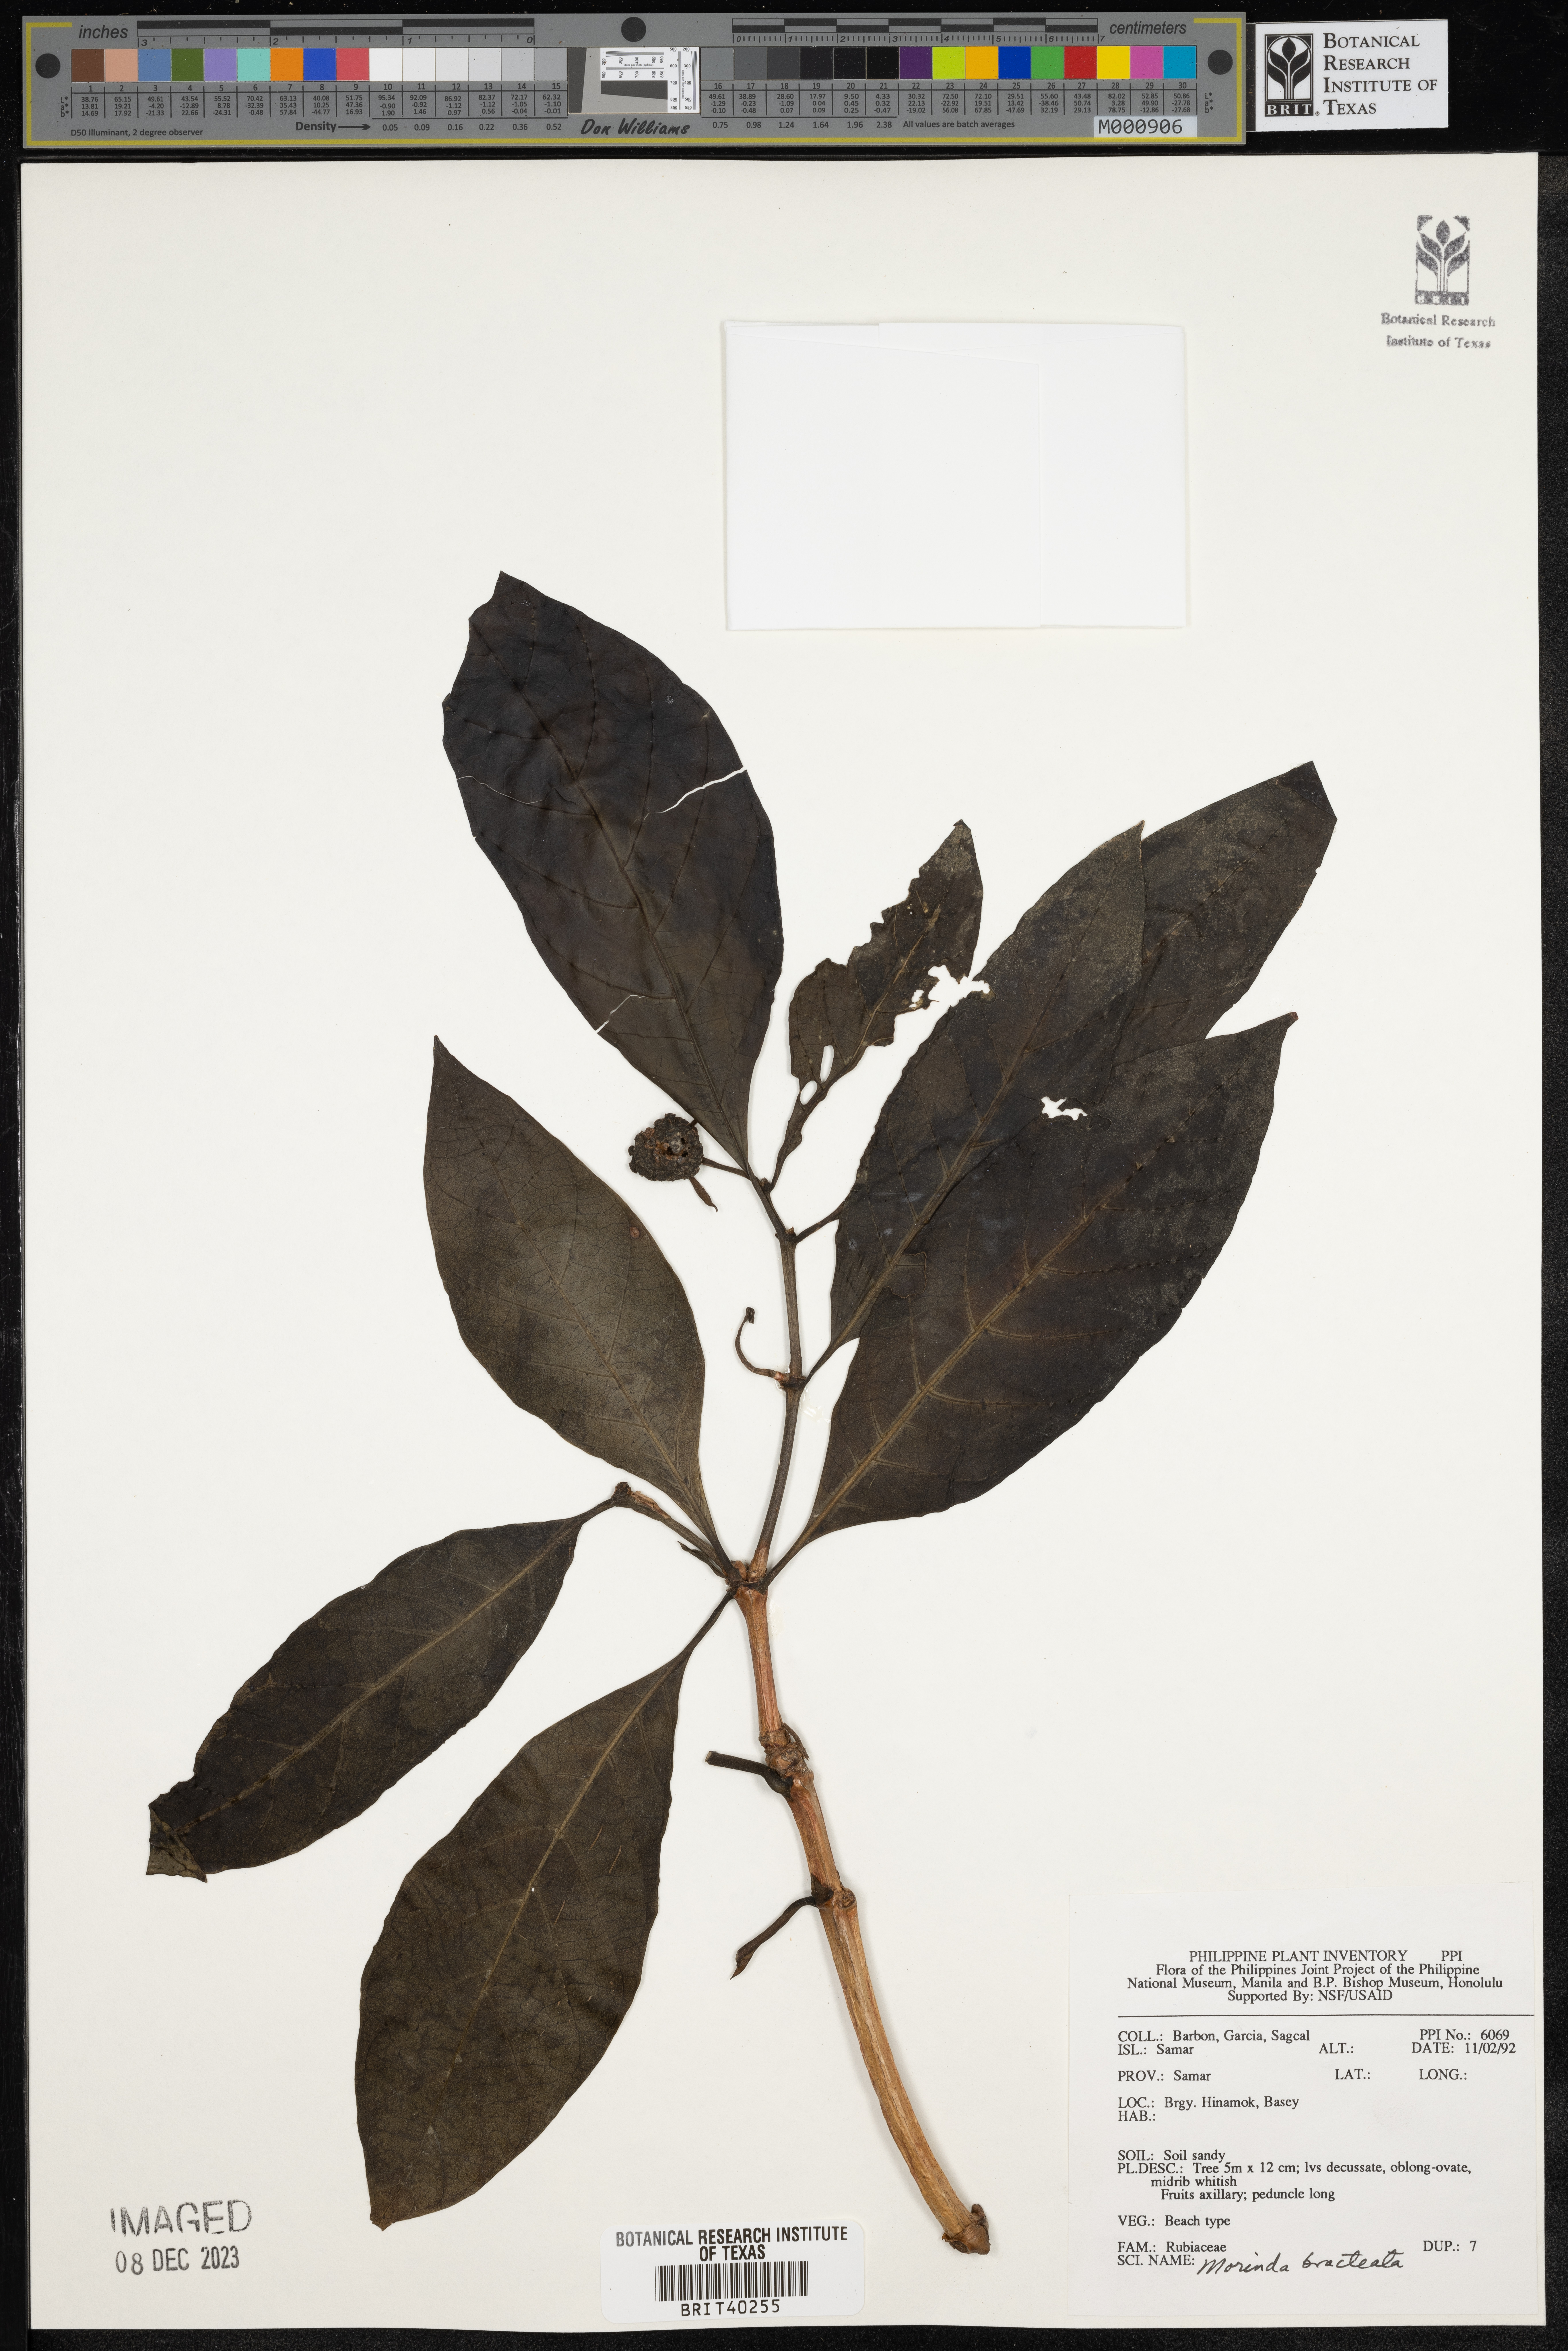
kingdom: Plantae
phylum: Tracheophyta
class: Magnoliopsida
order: Gentianales
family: Rubiaceae
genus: Morinda
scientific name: Morinda bracteata
